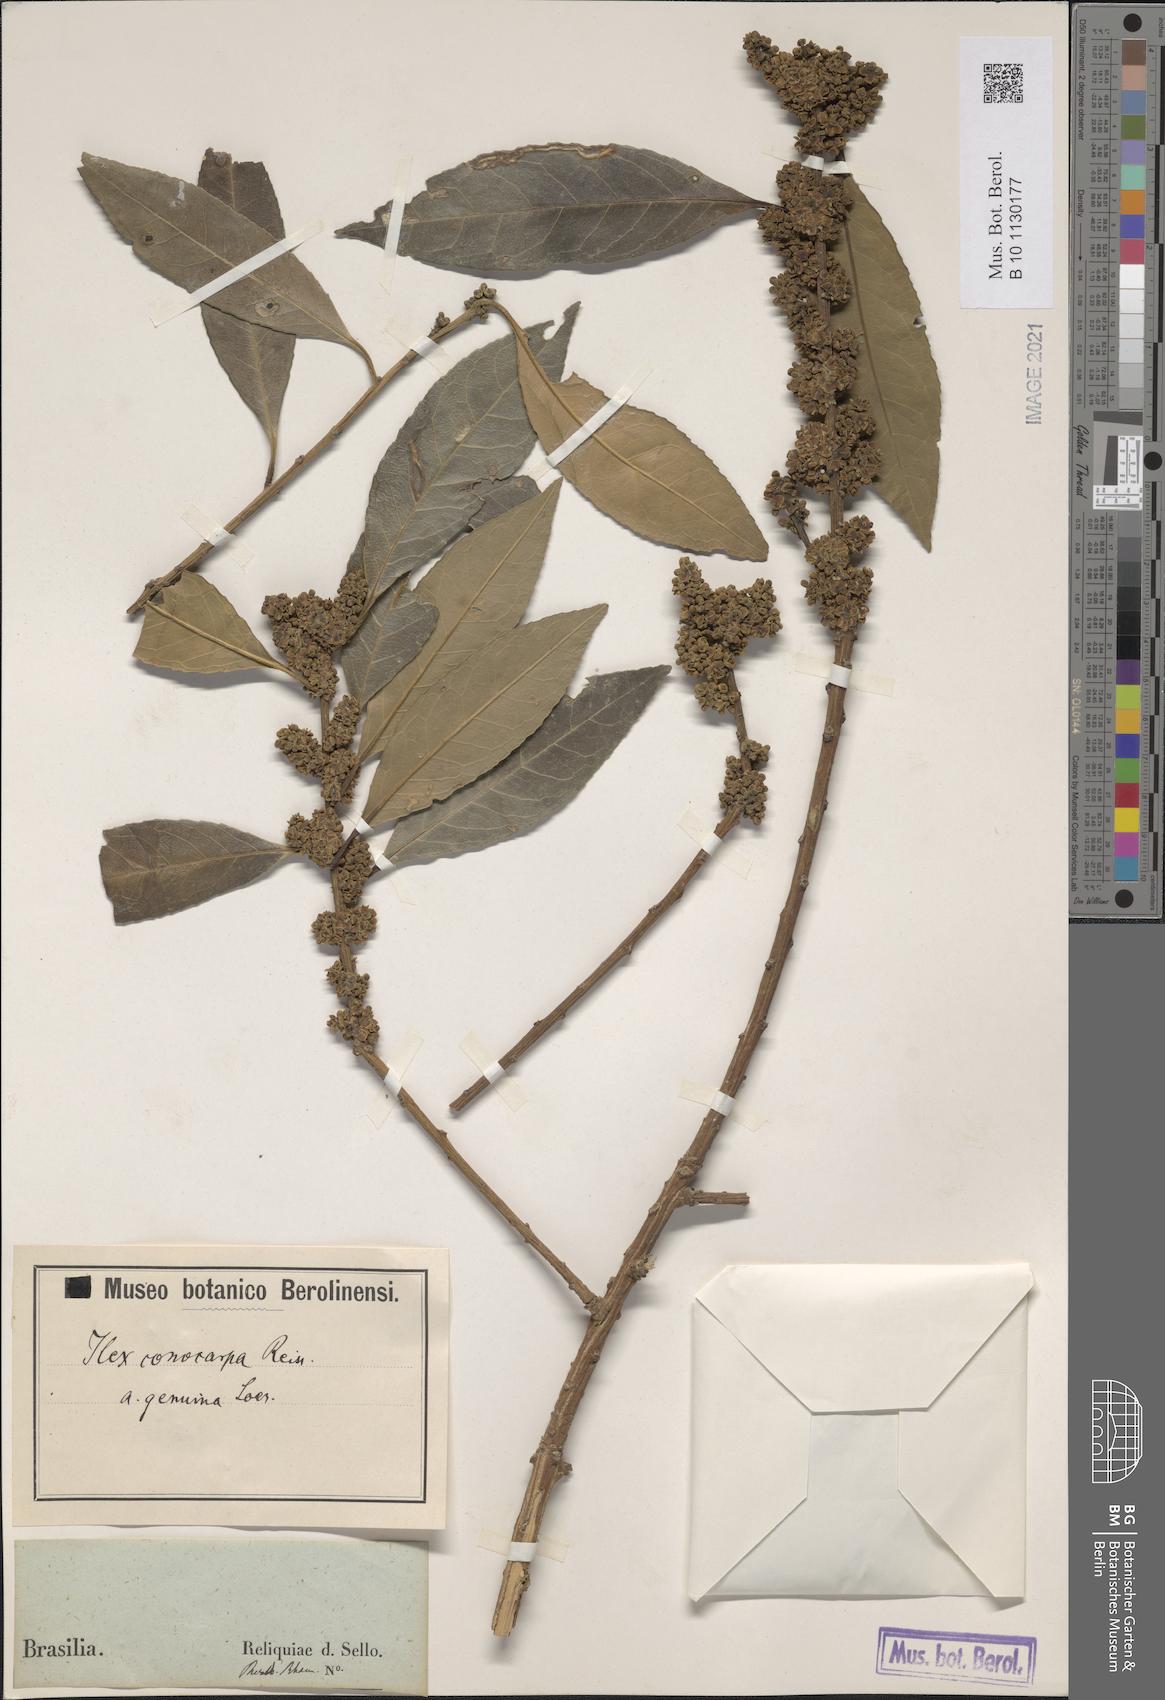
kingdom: Plantae
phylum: Tracheophyta
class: Magnoliopsida
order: Aquifoliales
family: Aquifoliaceae
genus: Ilex
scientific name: Ilex conocarpa
